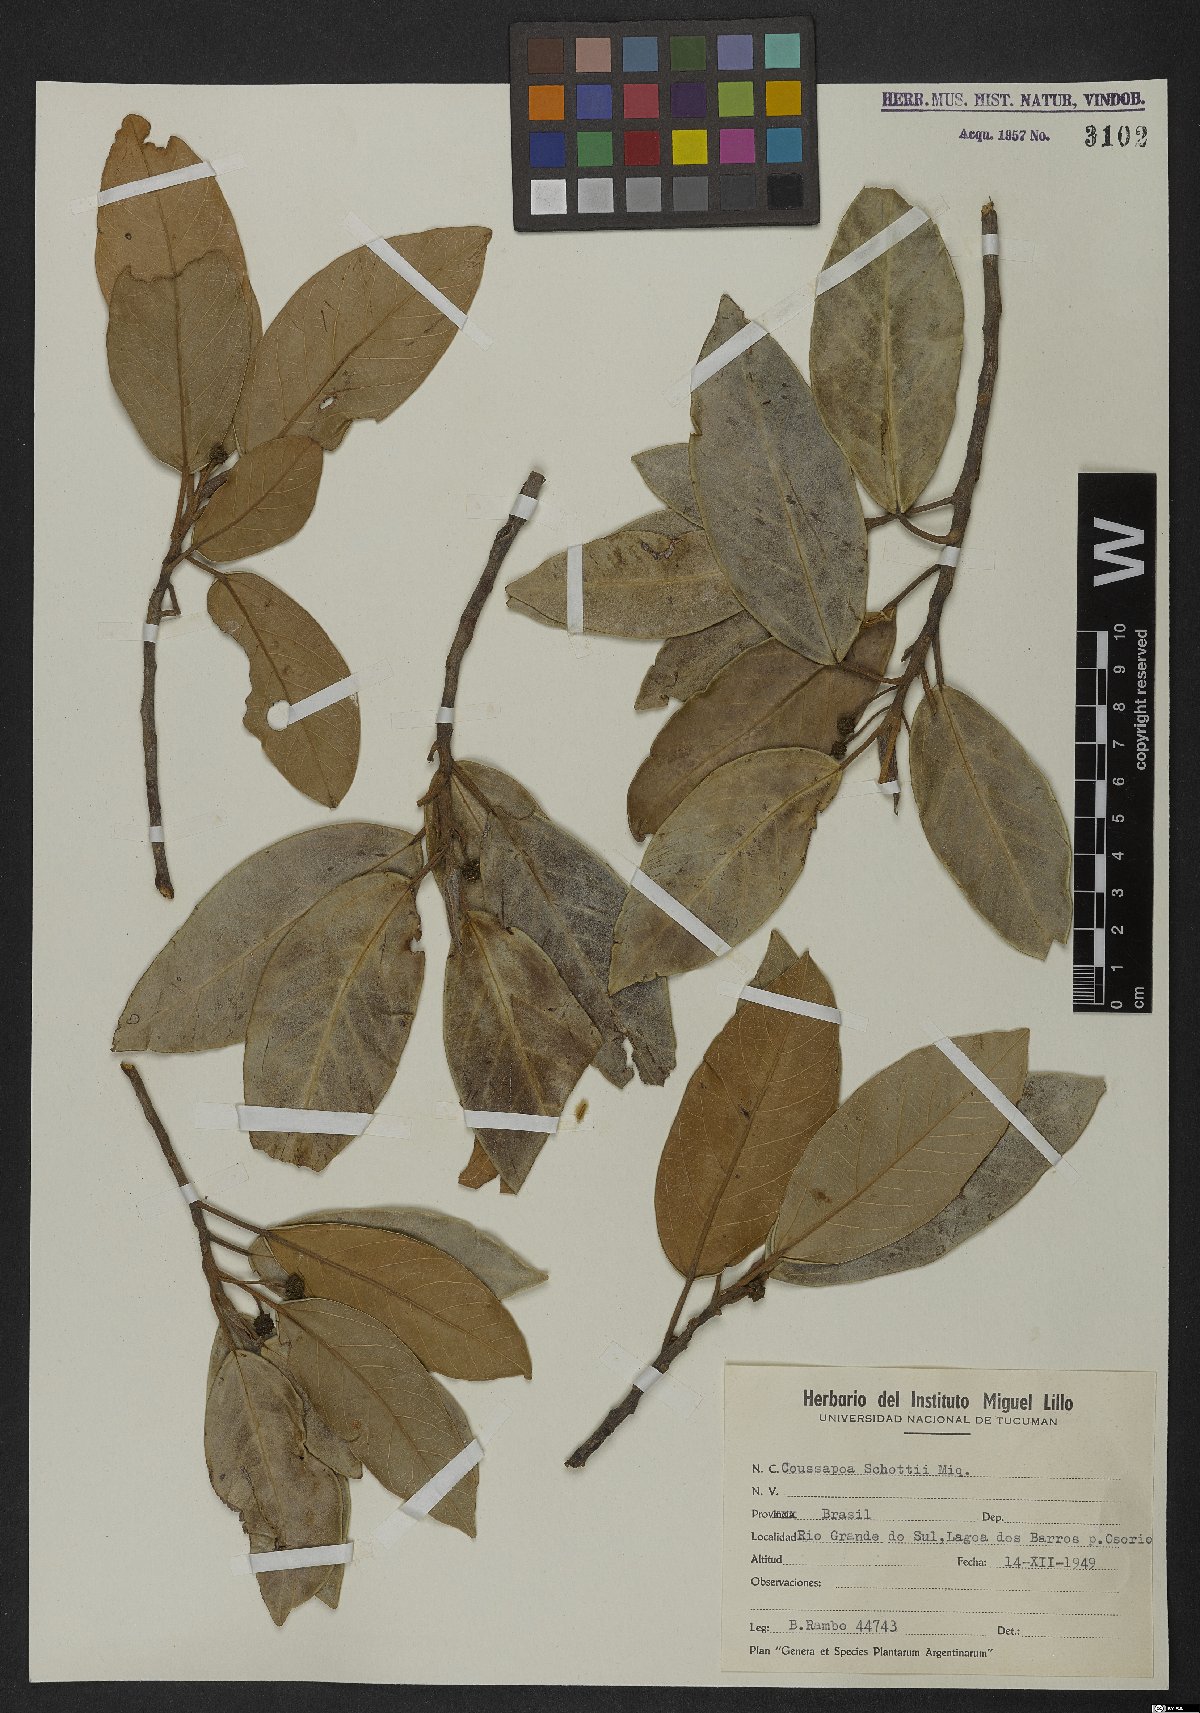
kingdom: Plantae
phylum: Tracheophyta
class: Magnoliopsida
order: Rosales
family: Urticaceae
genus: Coussapoa
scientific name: Coussapoa microcarpa
